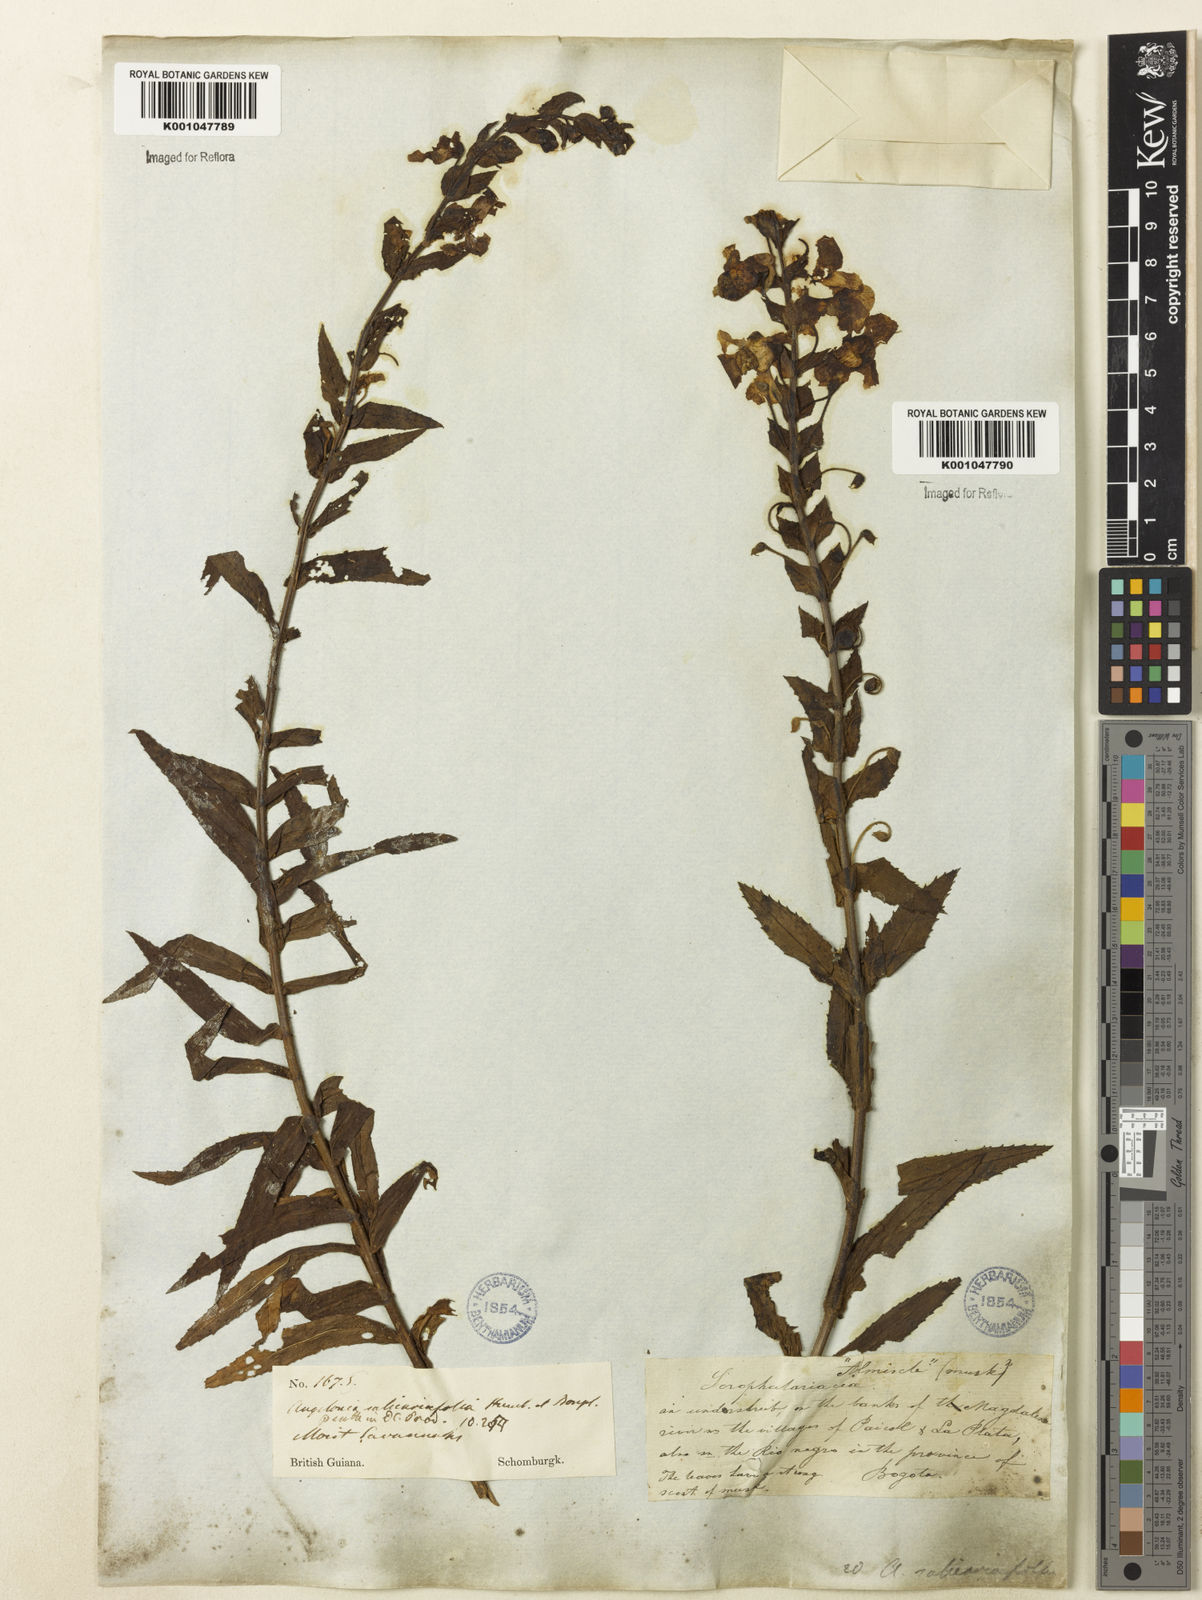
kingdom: Plantae
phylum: Tracheophyta
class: Magnoliopsida
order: Lamiales
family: Plantaginaceae
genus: Angelonia
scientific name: Angelonia salicariifolia
